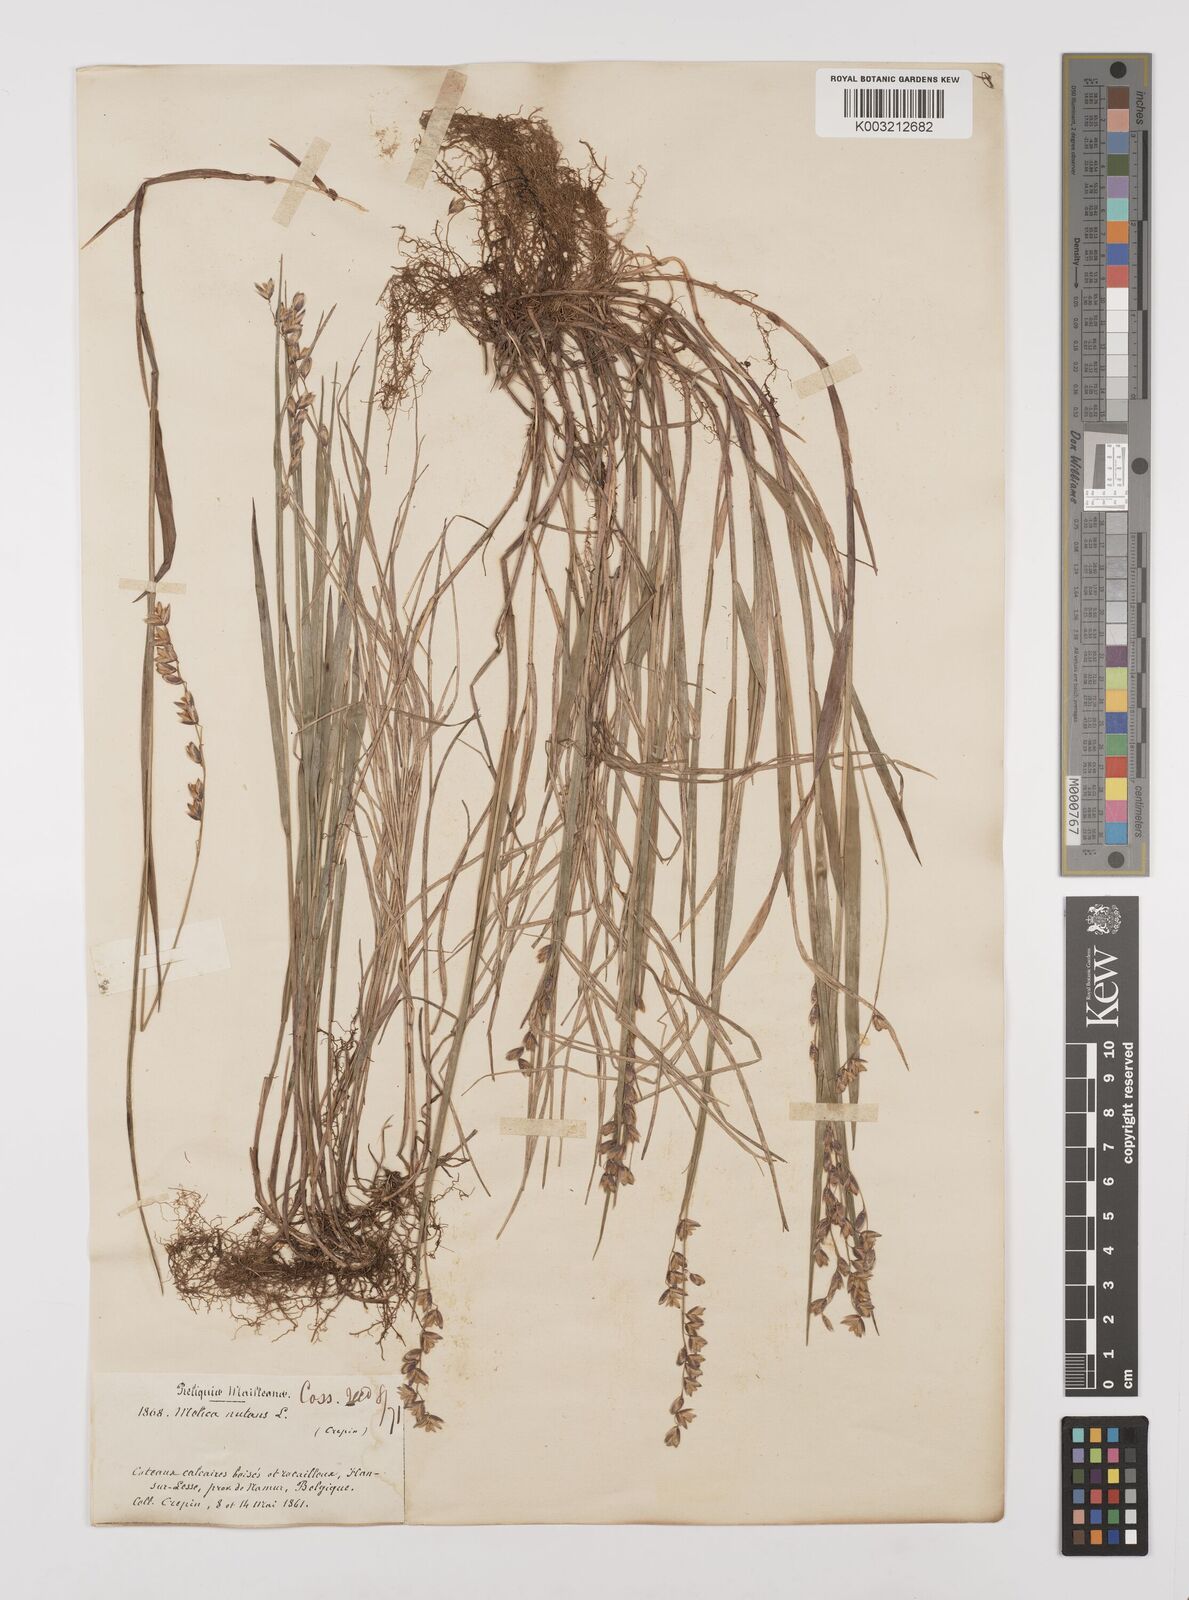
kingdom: Plantae
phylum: Tracheophyta
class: Liliopsida
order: Poales
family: Poaceae
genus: Melica
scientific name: Melica nutans
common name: Mountain melick
